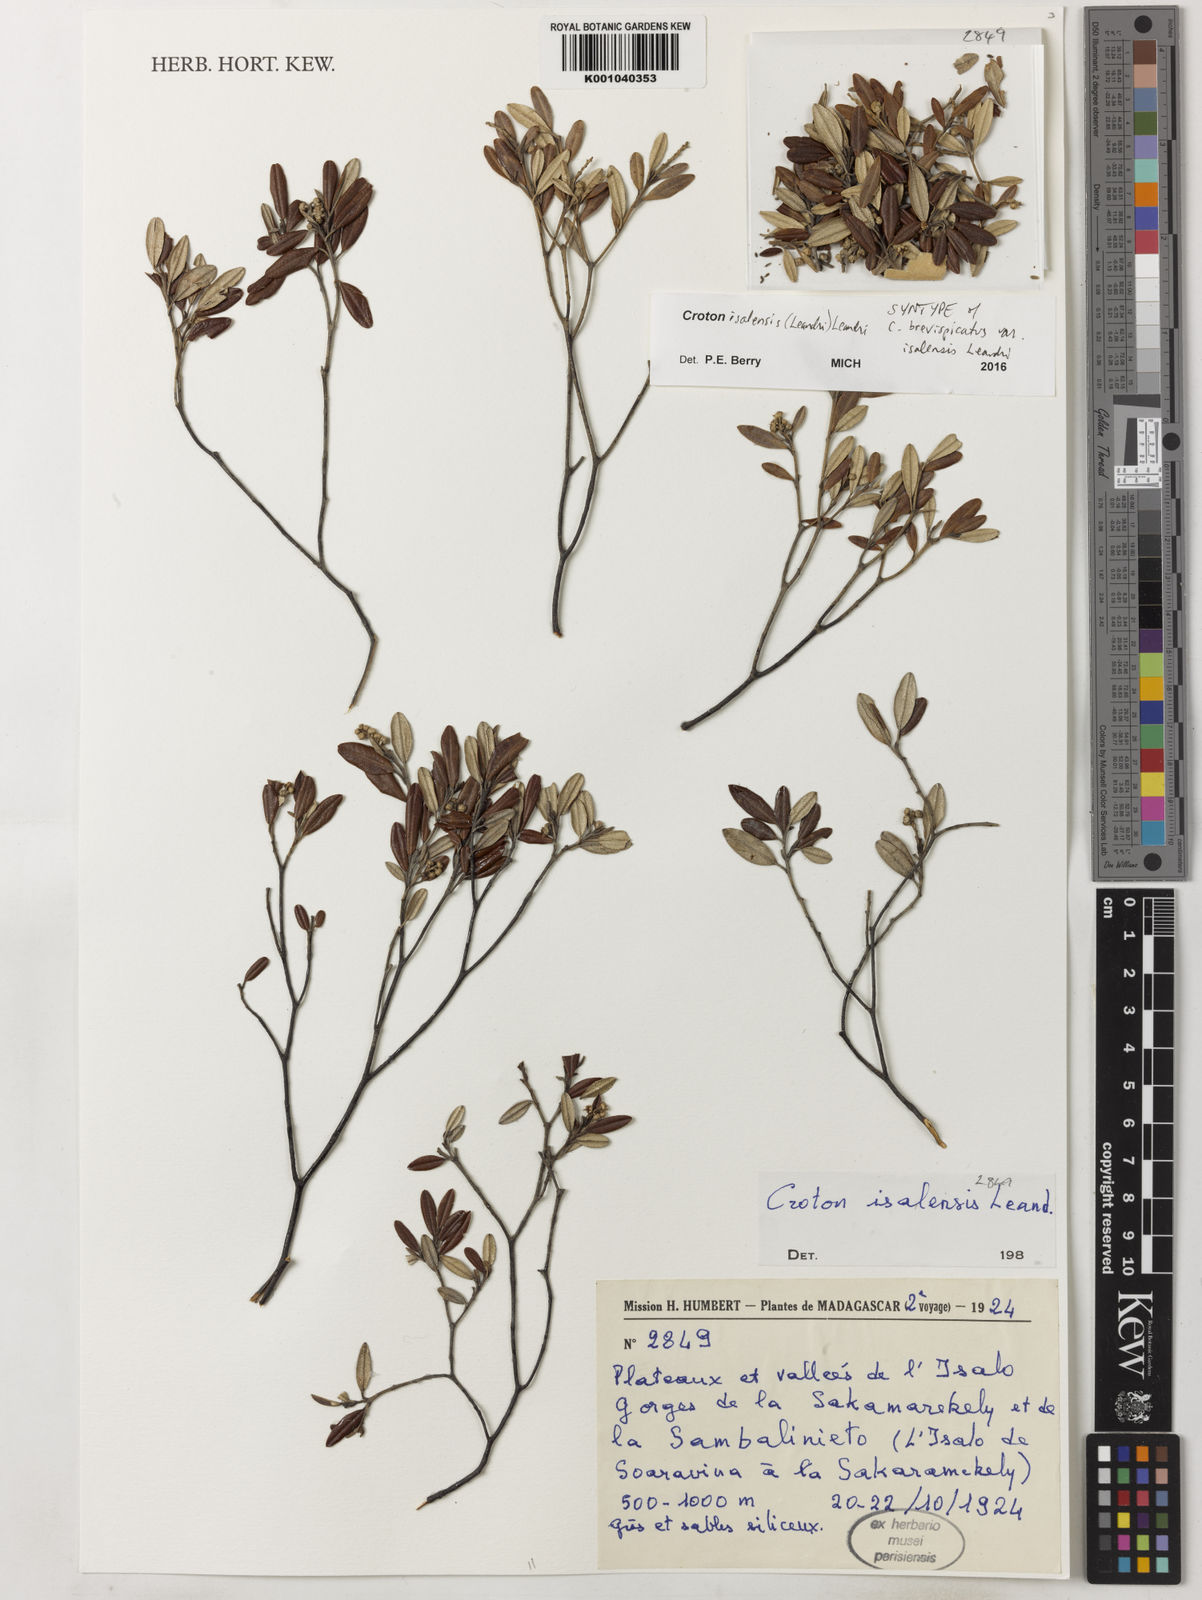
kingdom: Plantae
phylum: Tracheophyta
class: Magnoliopsida
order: Malpighiales
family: Euphorbiaceae
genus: Croton
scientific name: Croton isalensis
